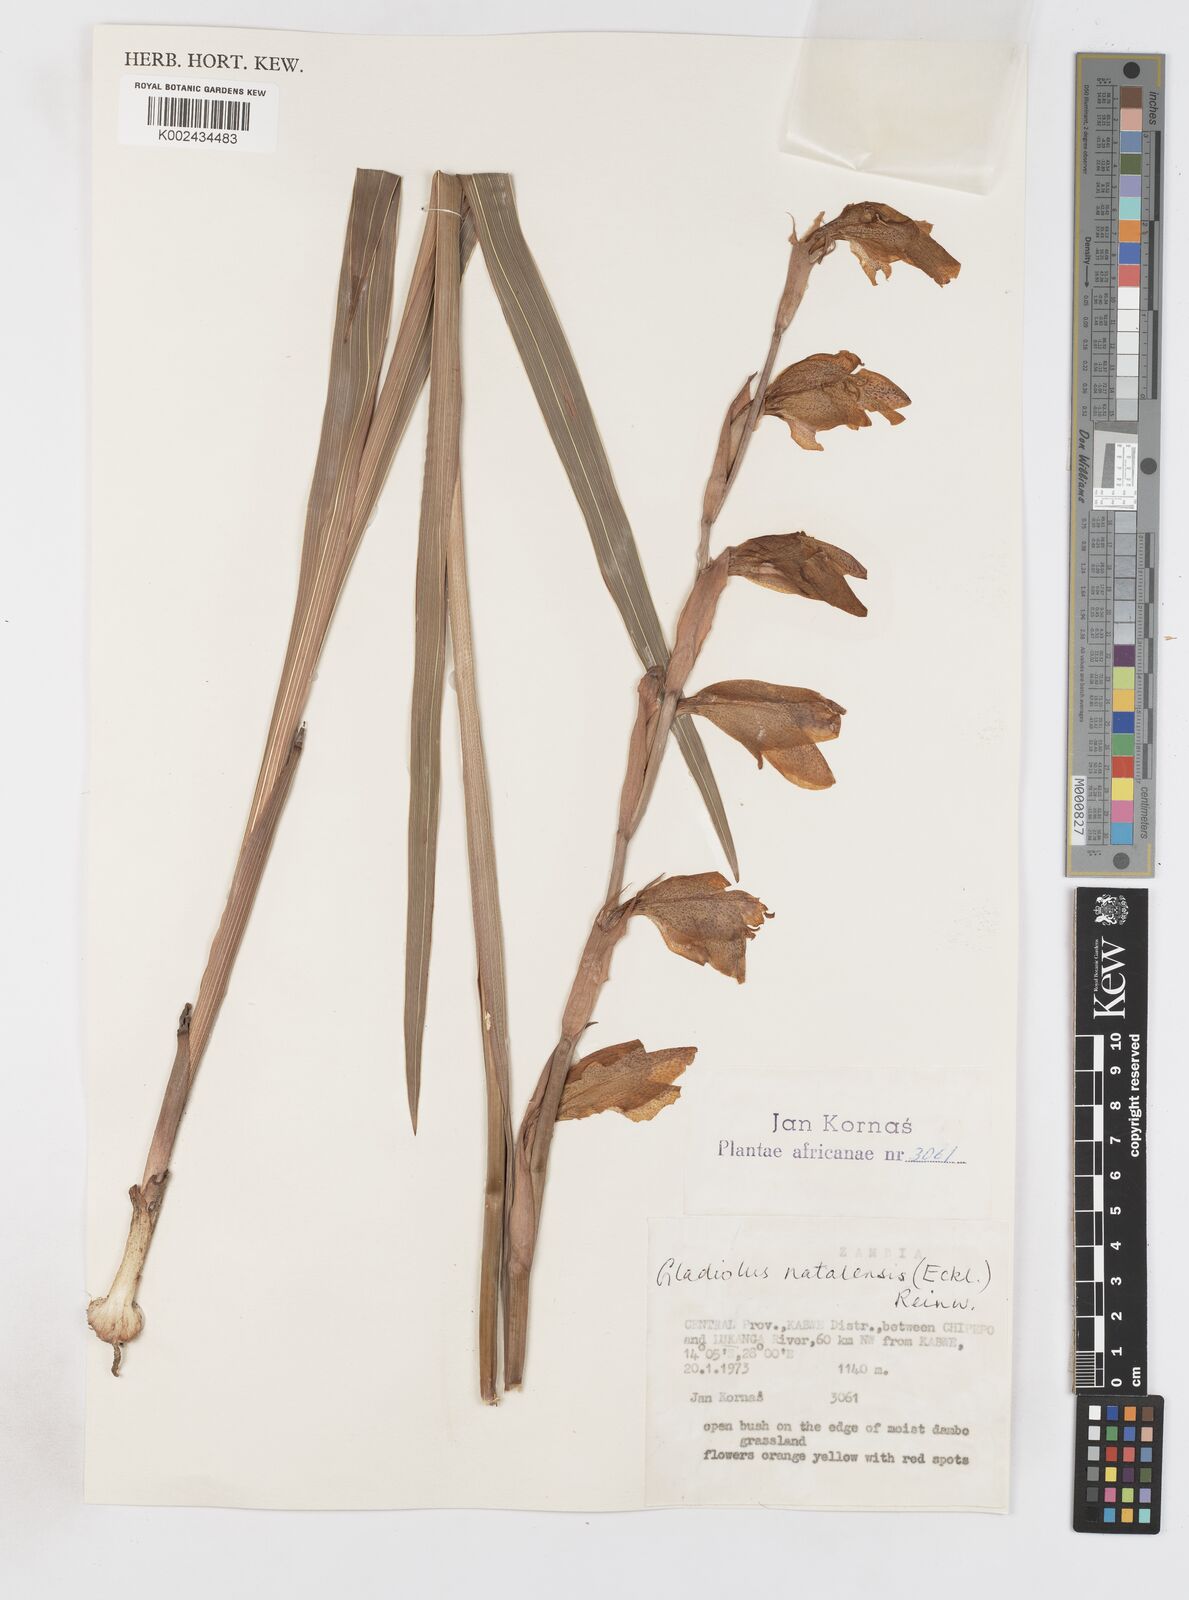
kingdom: Plantae
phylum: Tracheophyta
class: Liliopsida
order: Asparagales
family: Iridaceae
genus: Gladiolus
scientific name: Gladiolus dalenii
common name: Cornflag
